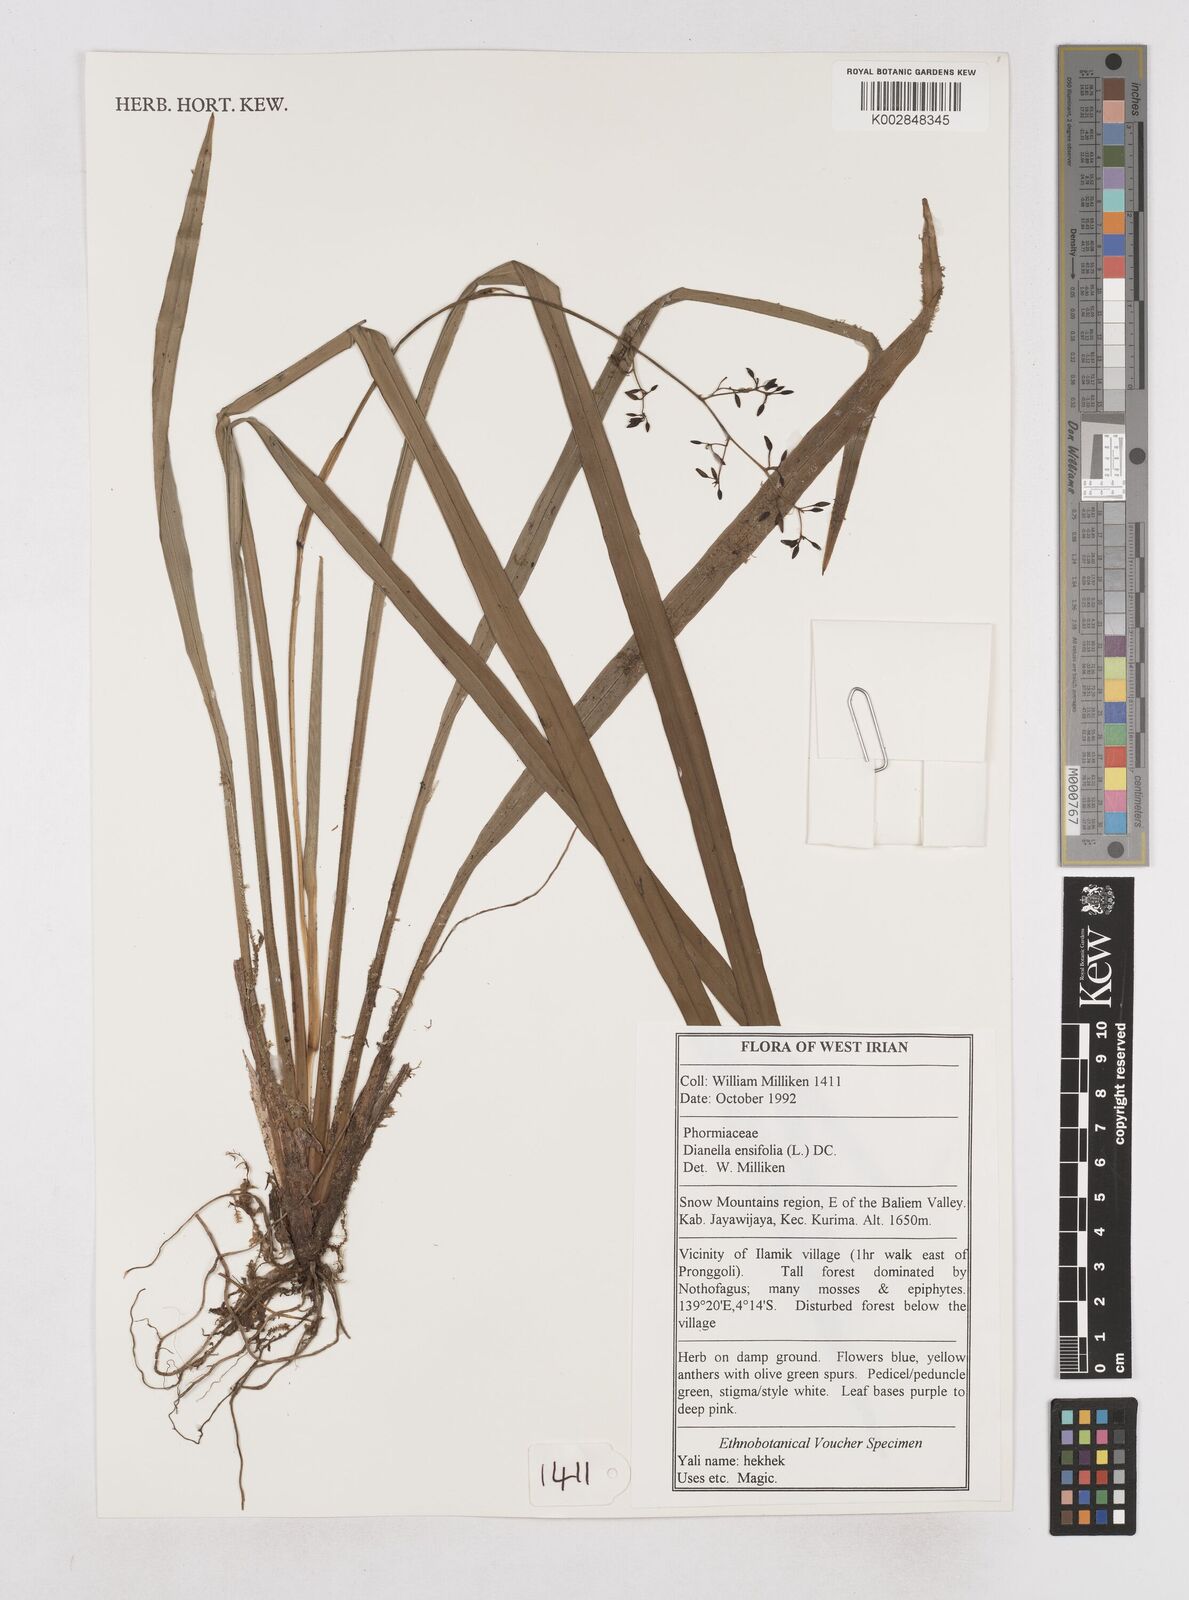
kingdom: Plantae
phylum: Tracheophyta
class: Liliopsida
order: Asparagales
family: Asphodelaceae
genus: Dianella
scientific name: Dianella ensifolia
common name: New zealand lilyplant
